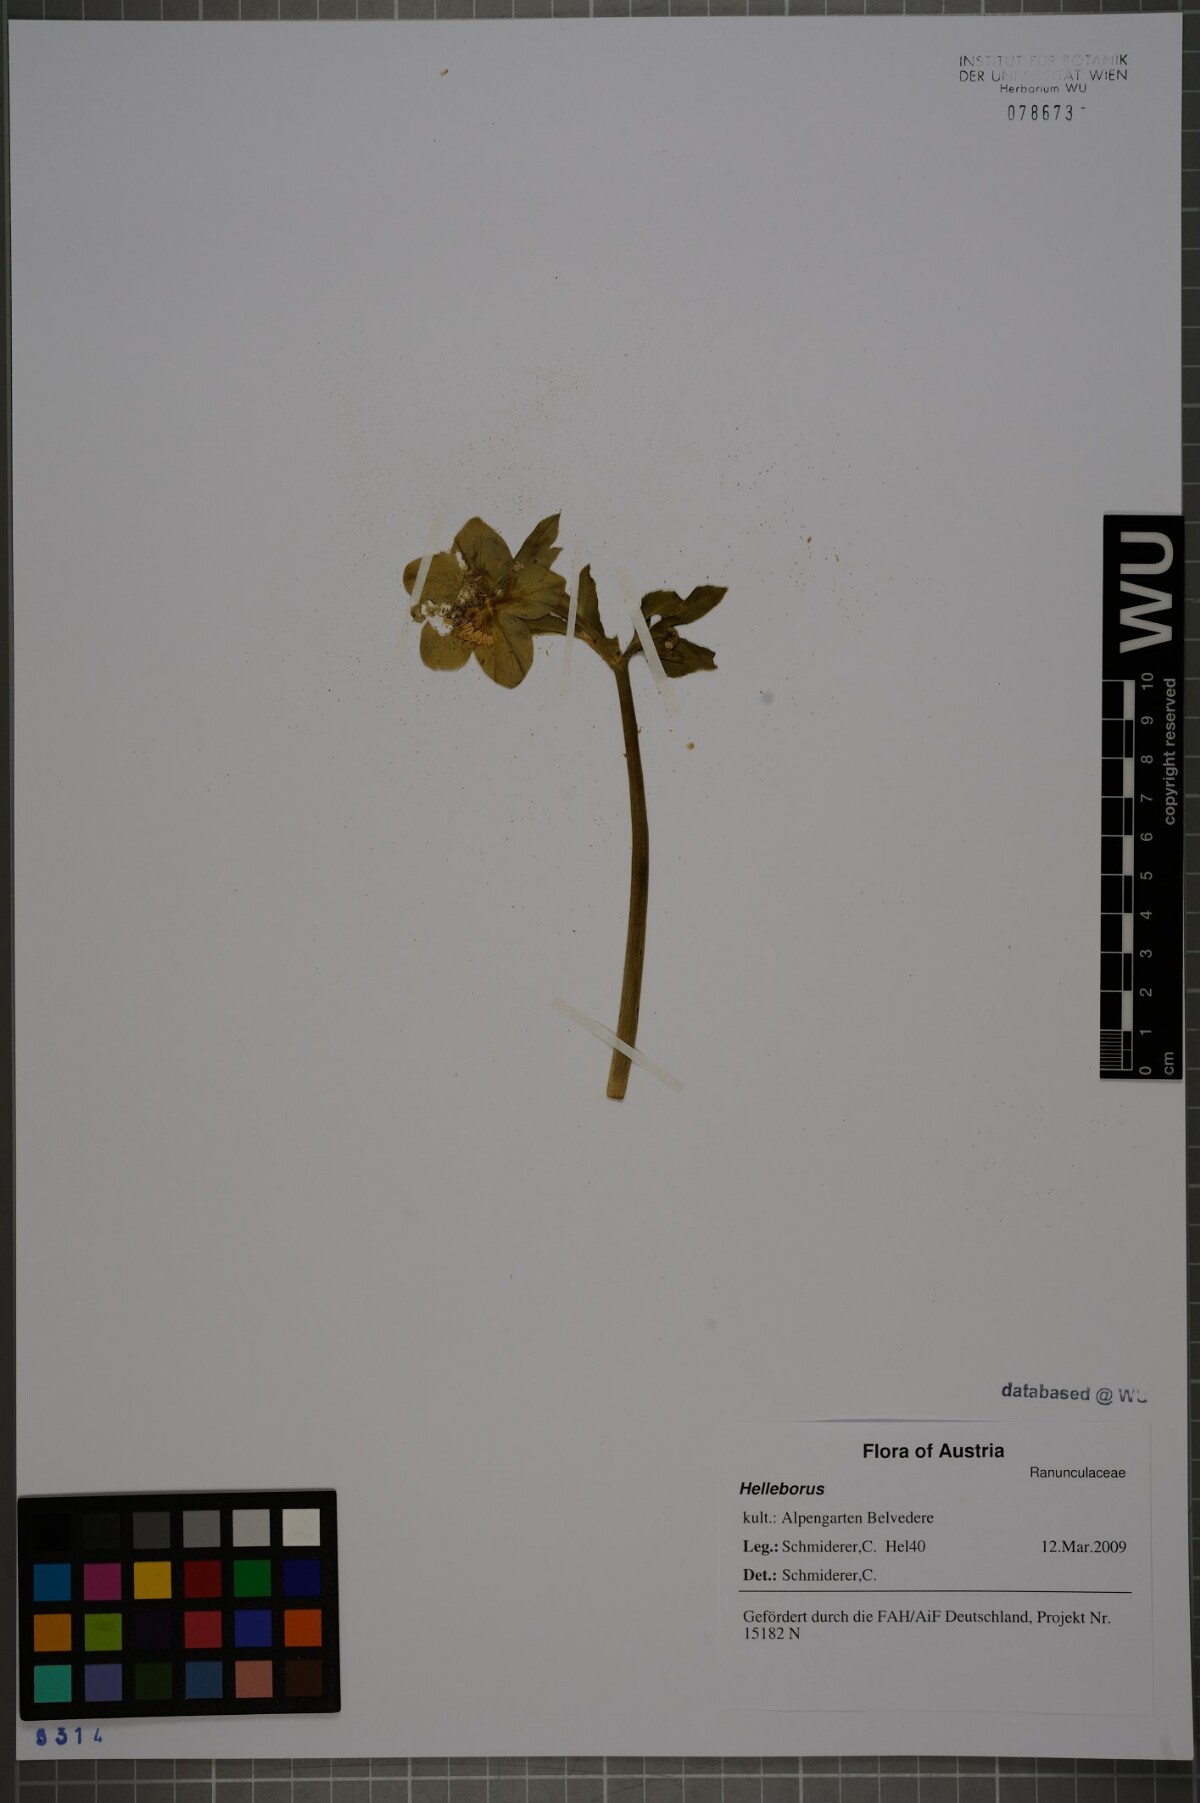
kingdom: Plantae
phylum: Tracheophyta
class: Magnoliopsida
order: Ranunculales
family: Ranunculaceae
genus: Helleborus
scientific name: Helleborus
